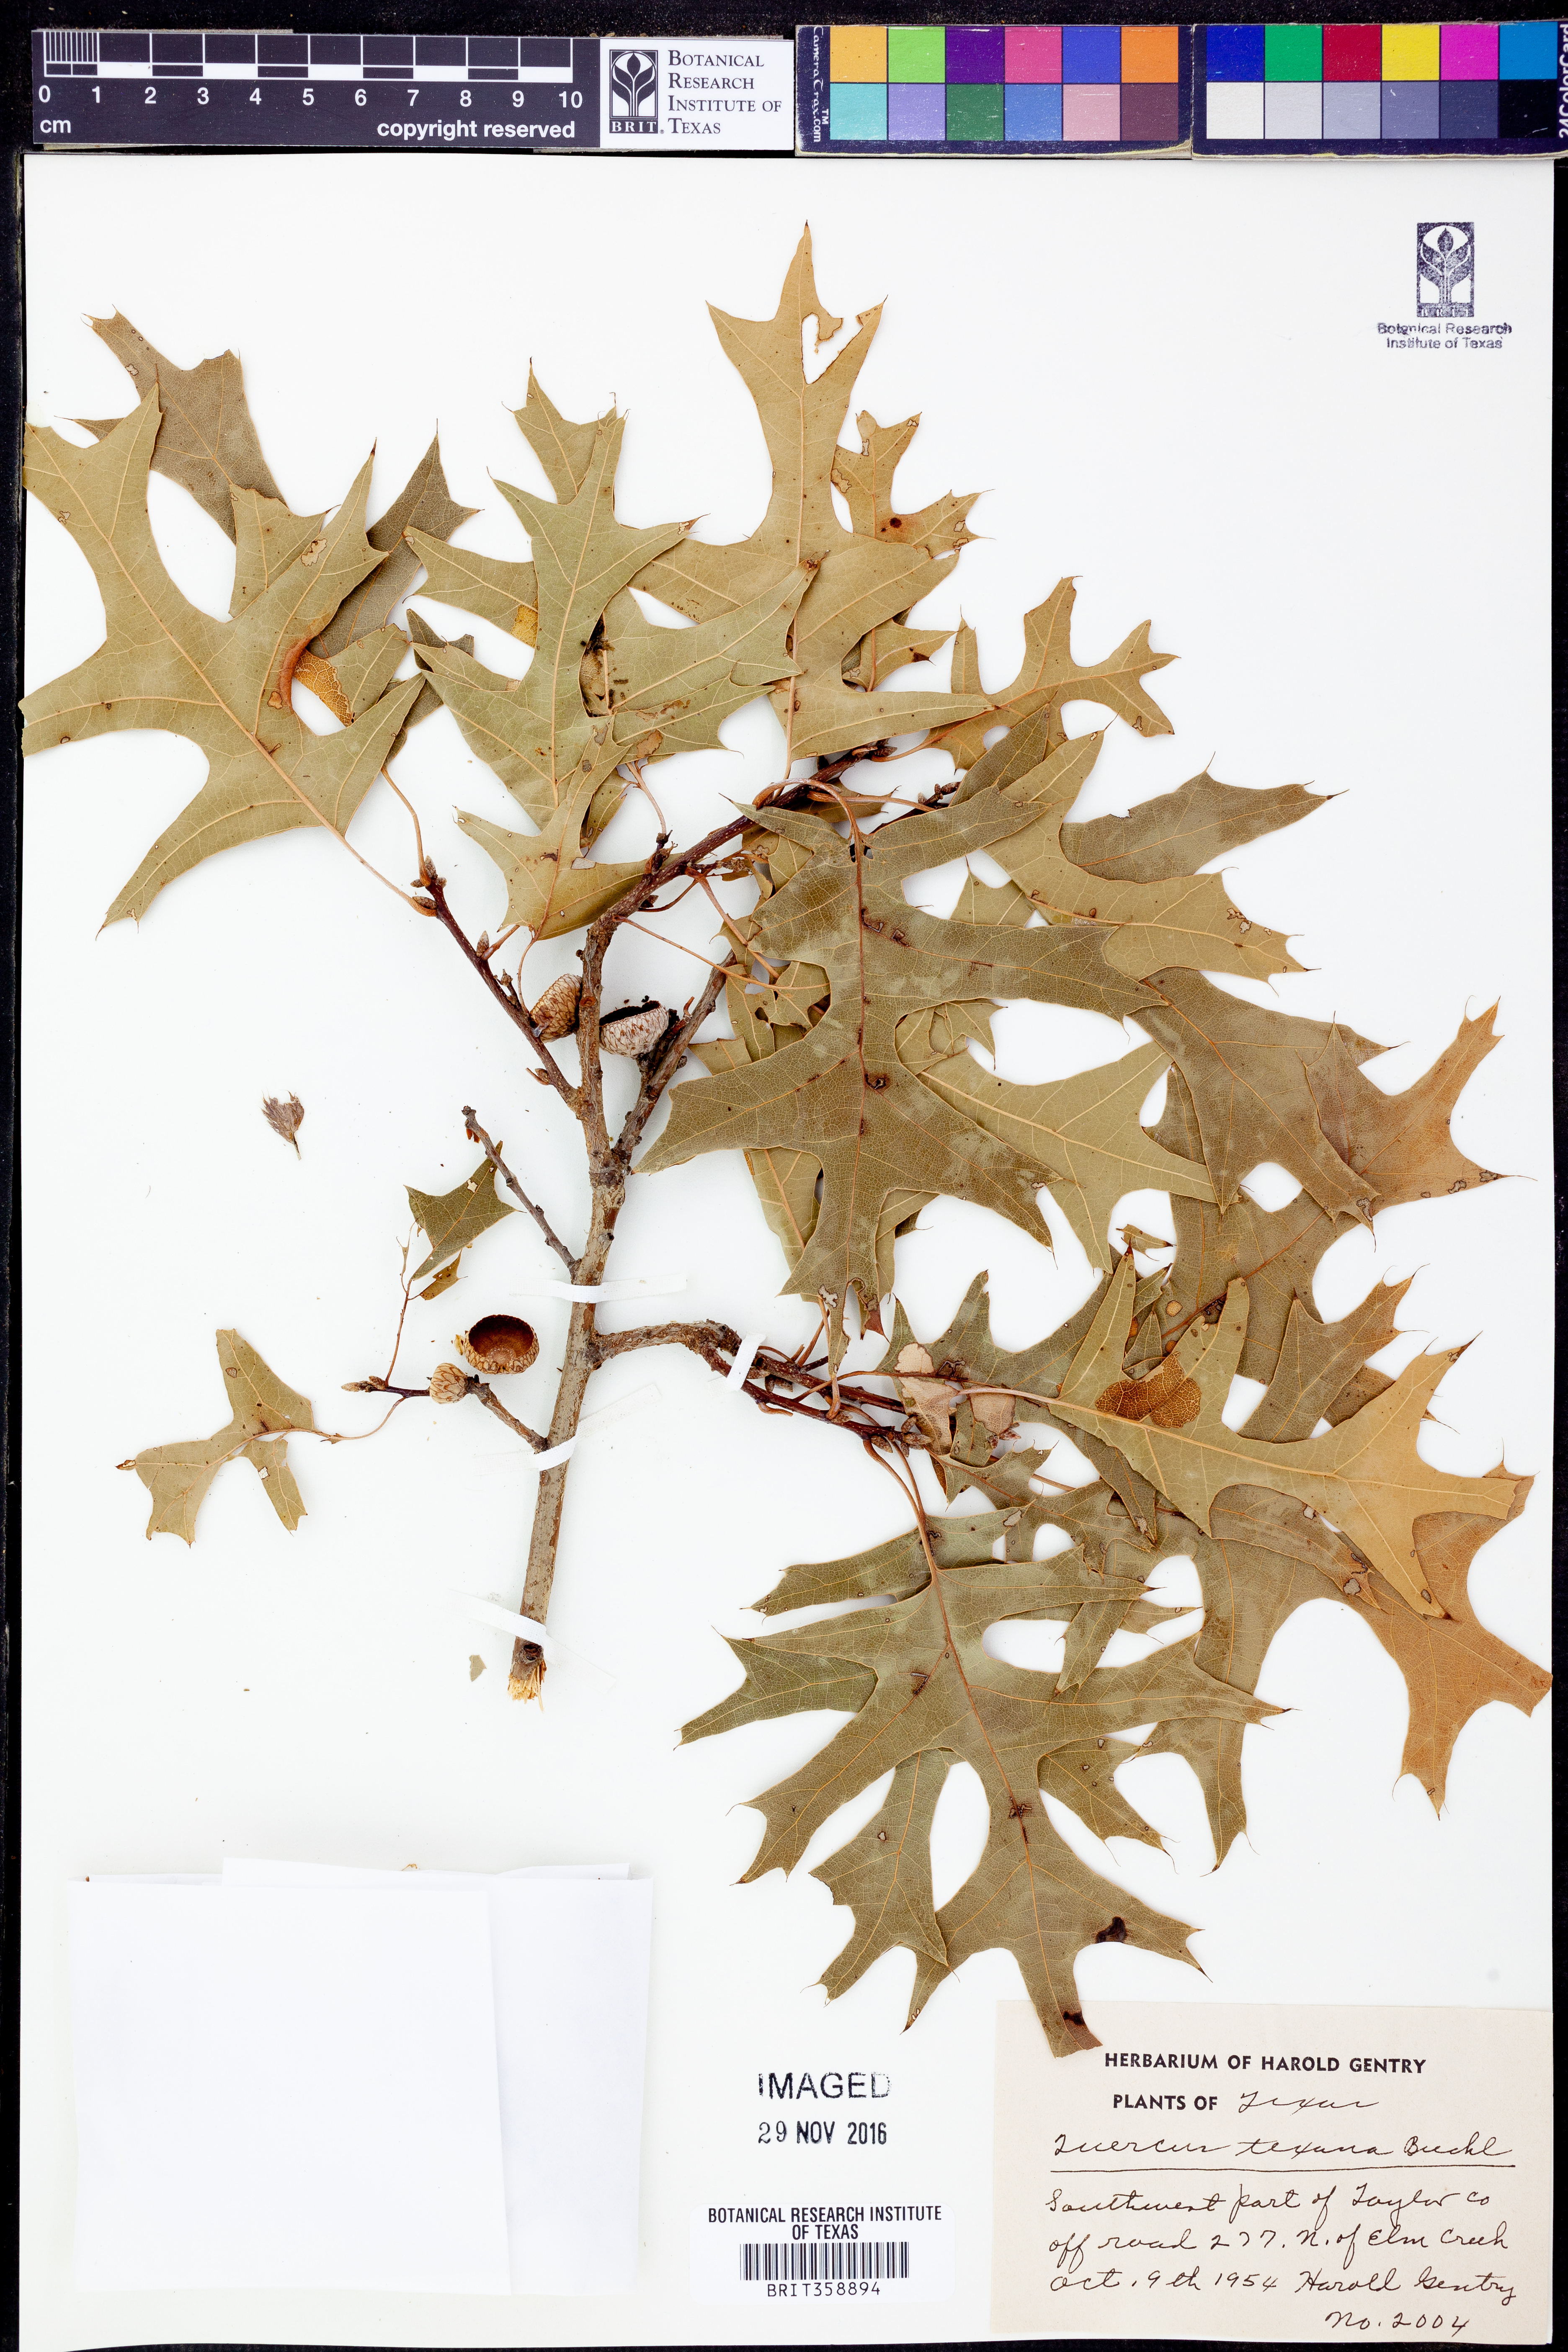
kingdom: Plantae
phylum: Tracheophyta
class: Magnoliopsida
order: Fagales
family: Fagaceae
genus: Quercus
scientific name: Quercus texana
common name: Nuttall oak
